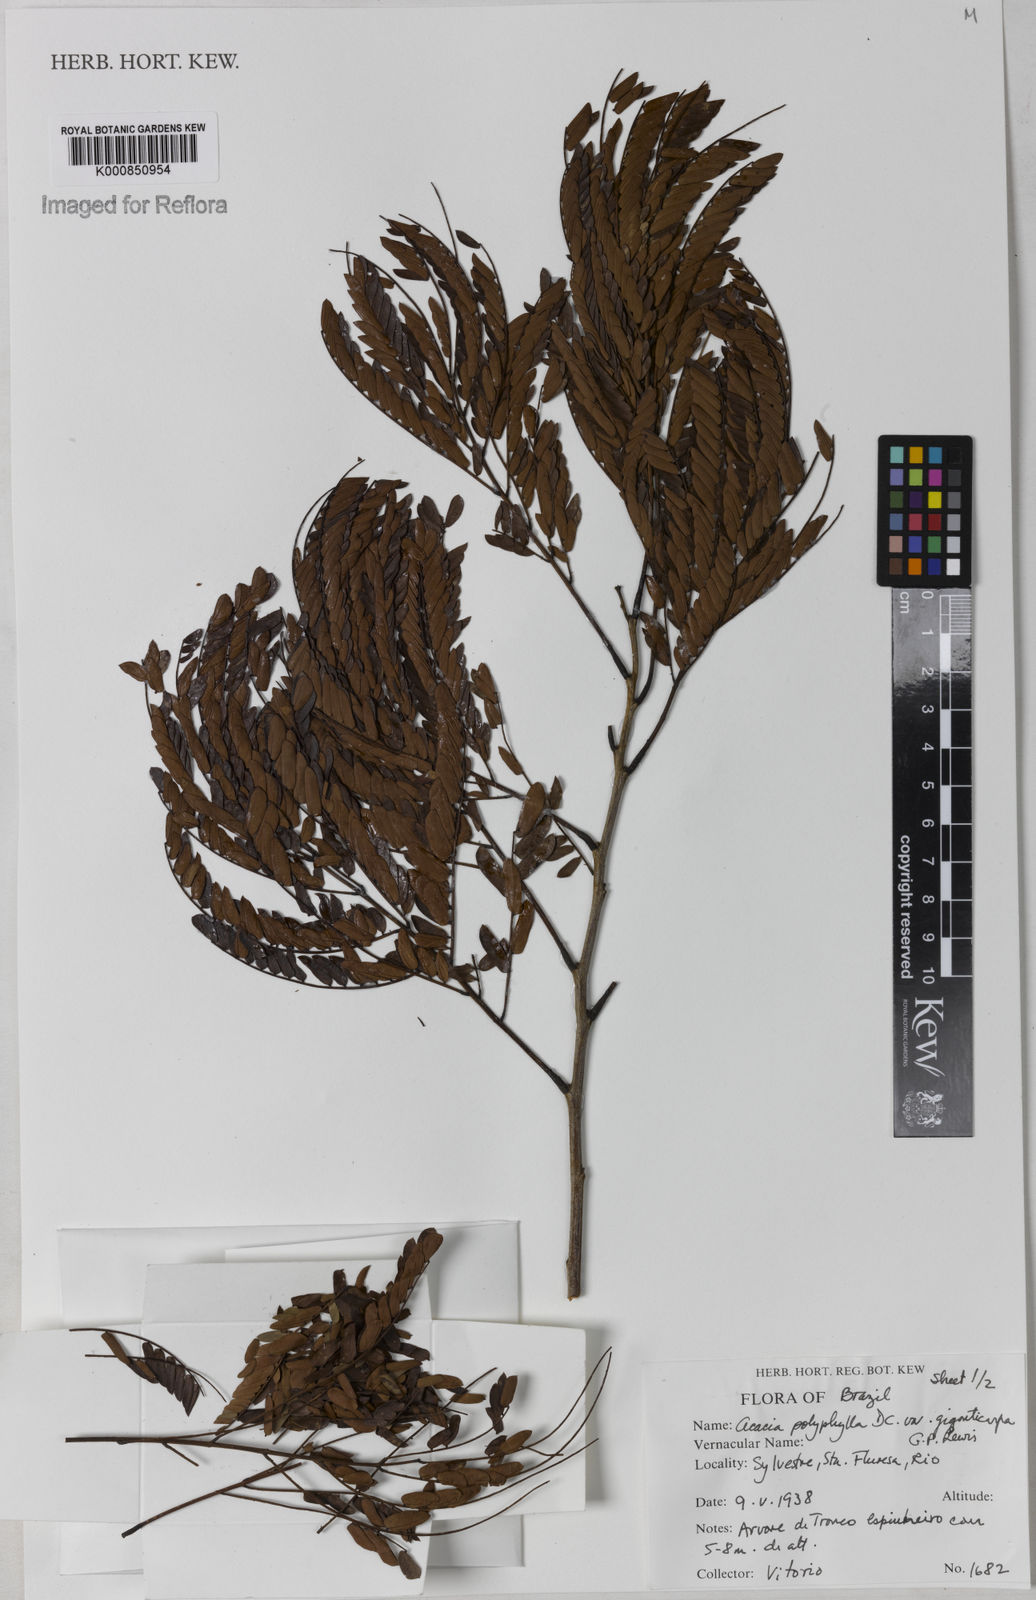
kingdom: Plantae
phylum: Tracheophyta
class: Magnoliopsida
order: Fabales
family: Fabaceae
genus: Senegalia
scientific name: Senegalia giganticarpa
